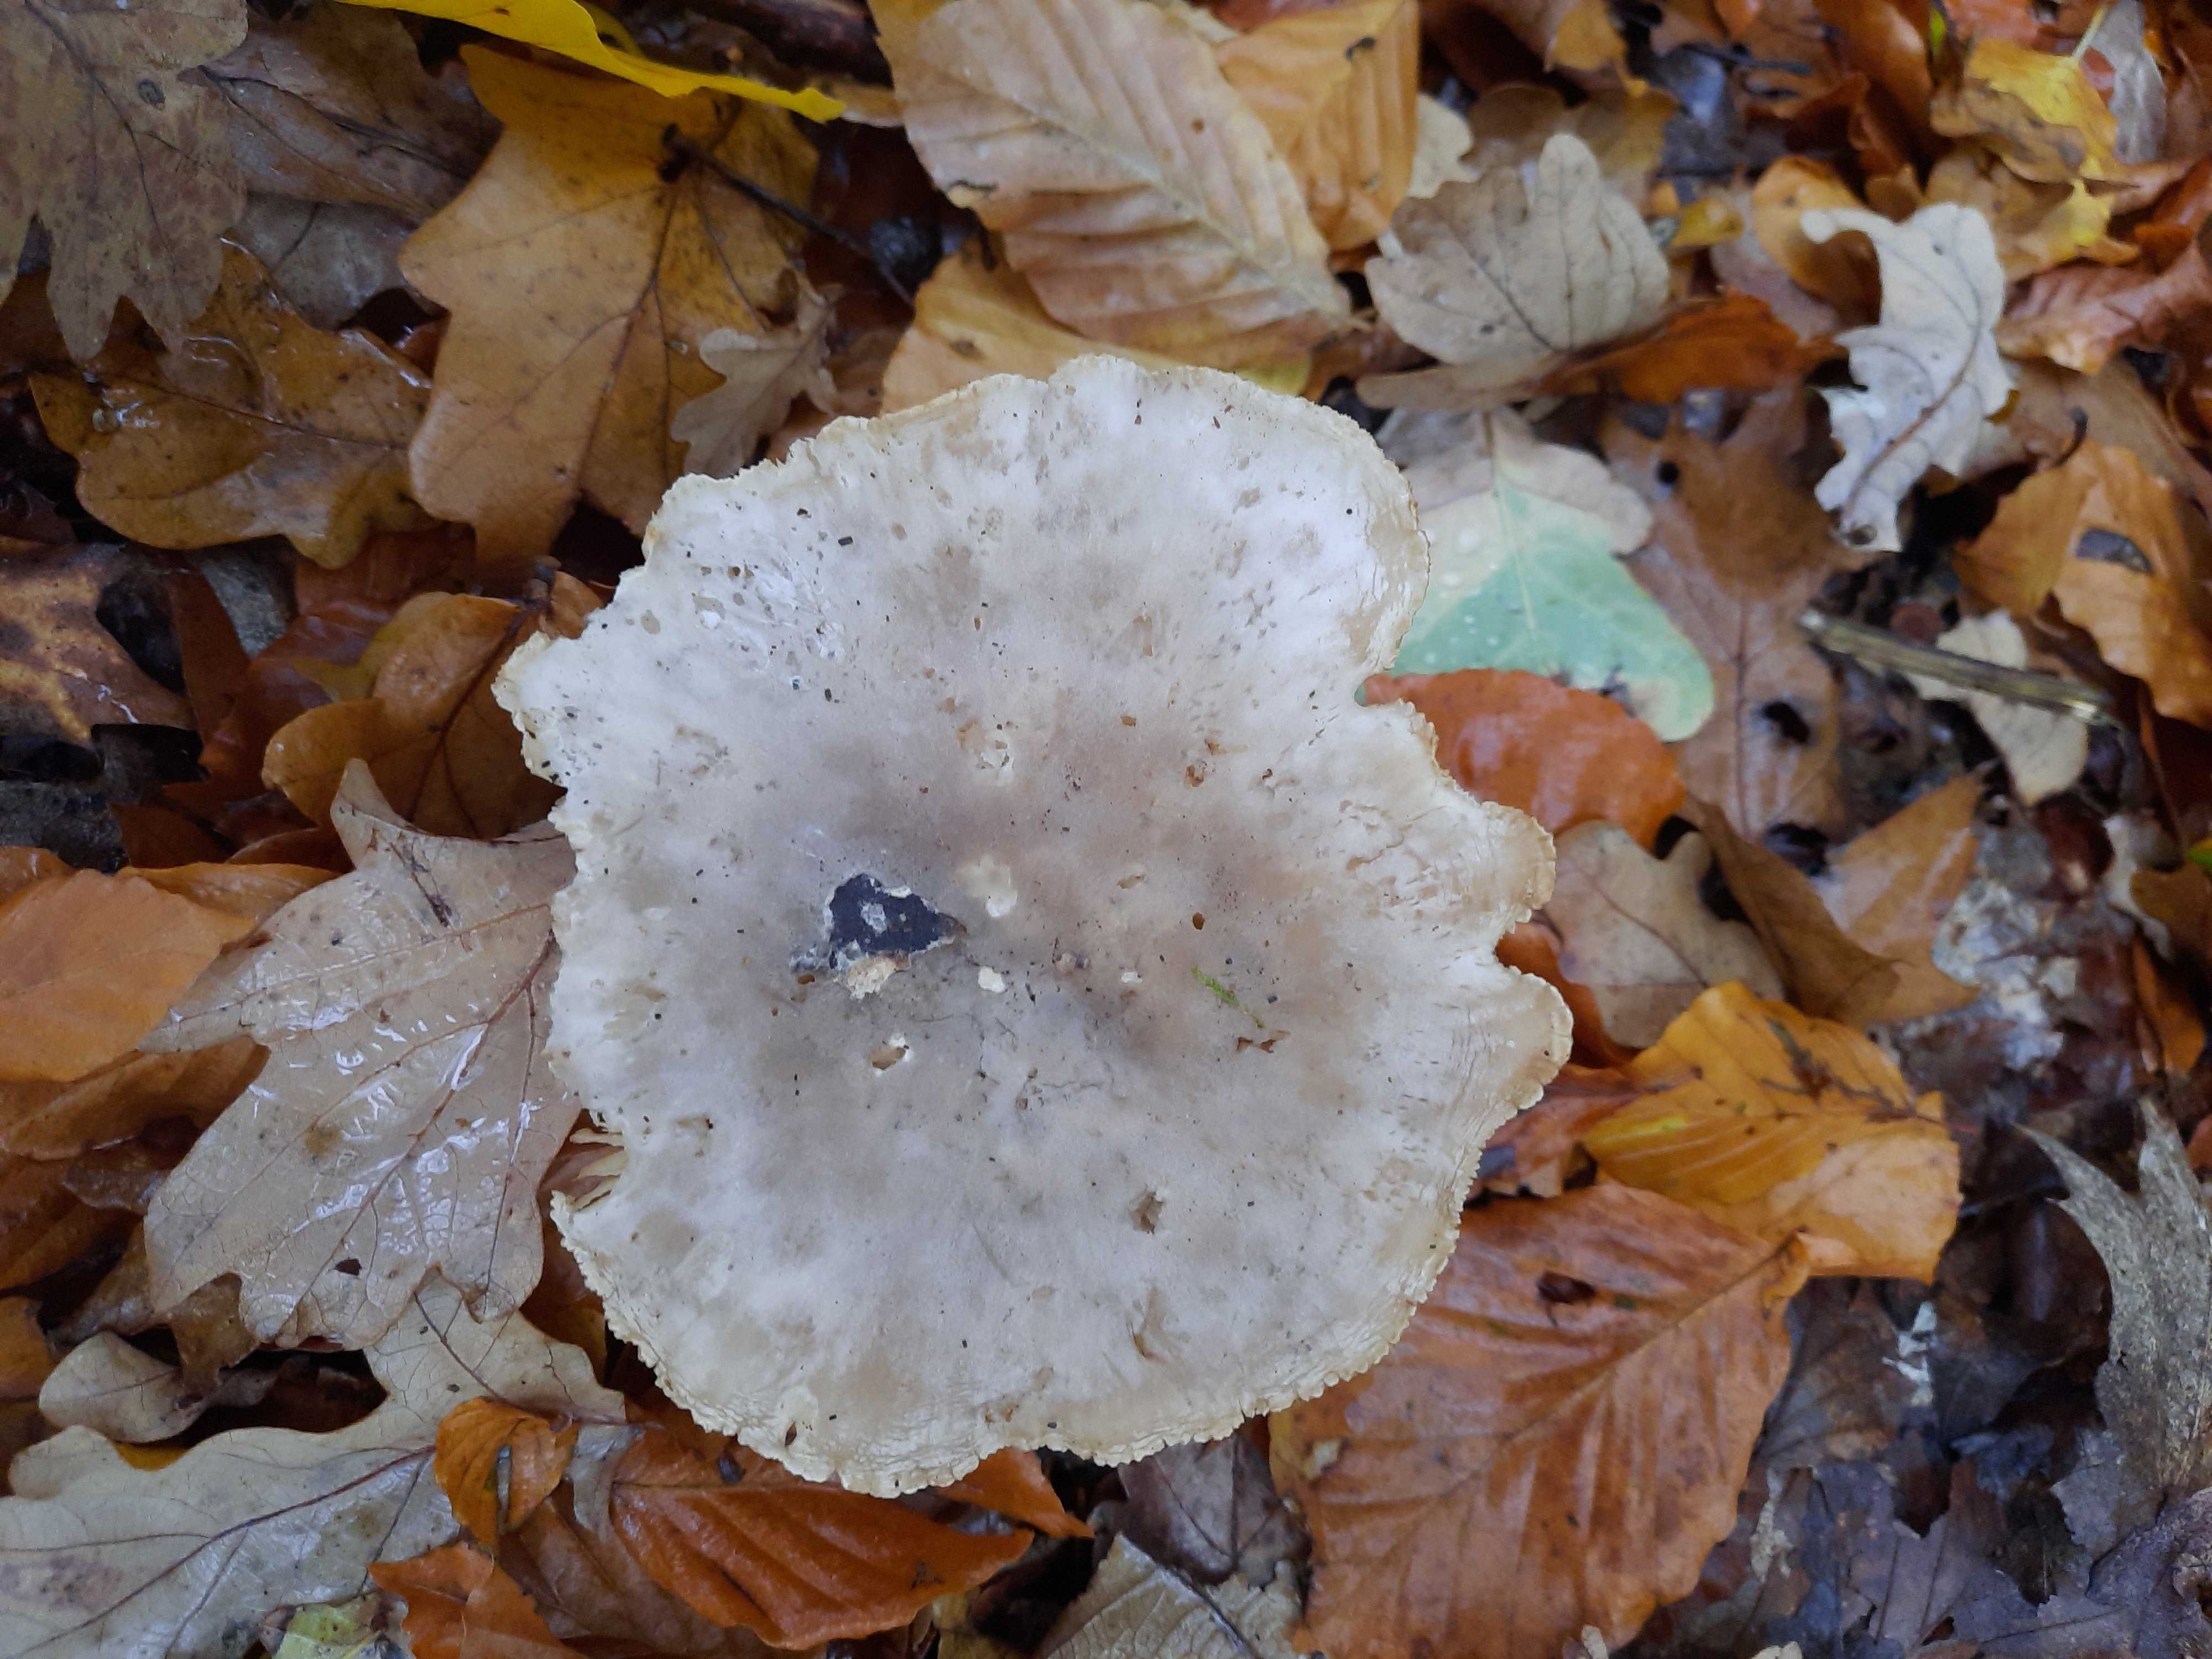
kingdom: Fungi
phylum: Basidiomycota
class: Agaricomycetes
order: Agaricales
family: Tricholomataceae
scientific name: Tricholomataceae
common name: ridderhatfamilien
